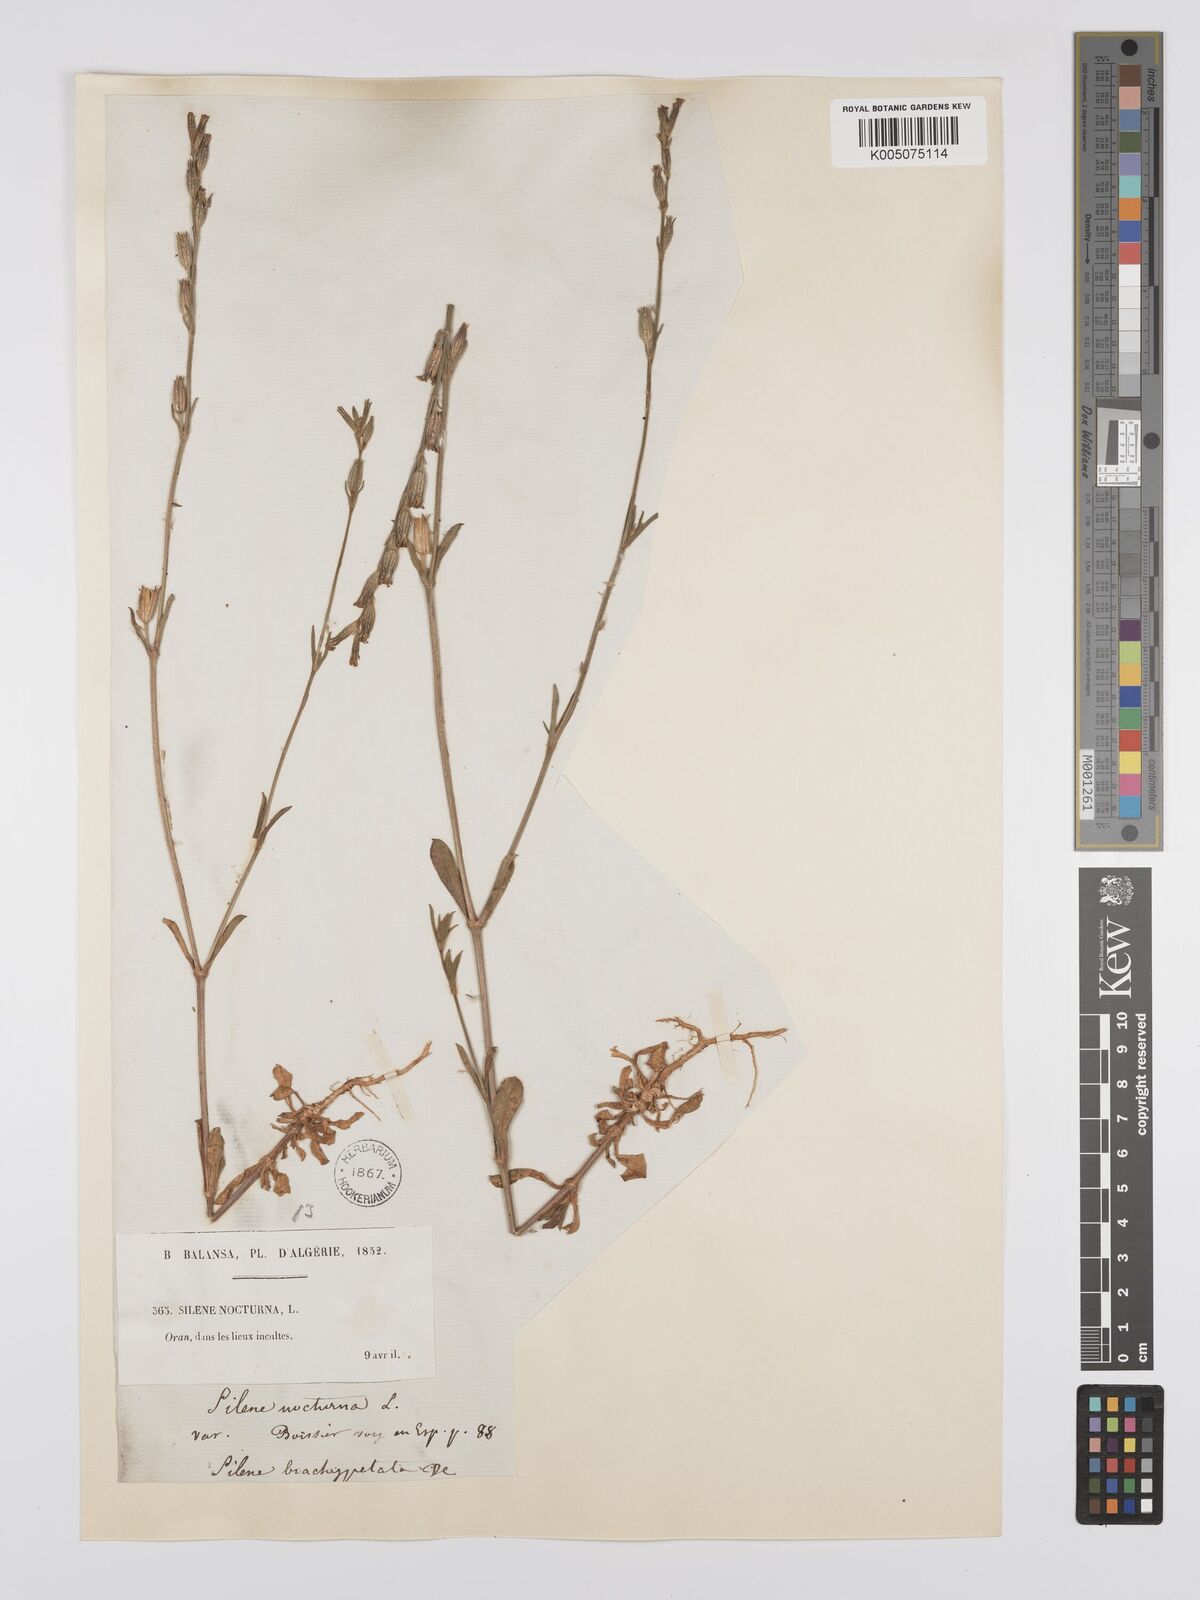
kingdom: Plantae
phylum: Tracheophyta
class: Magnoliopsida
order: Caryophyllales
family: Caryophyllaceae
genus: Silene
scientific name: Silene nocturna
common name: Mediterranean catchfly
